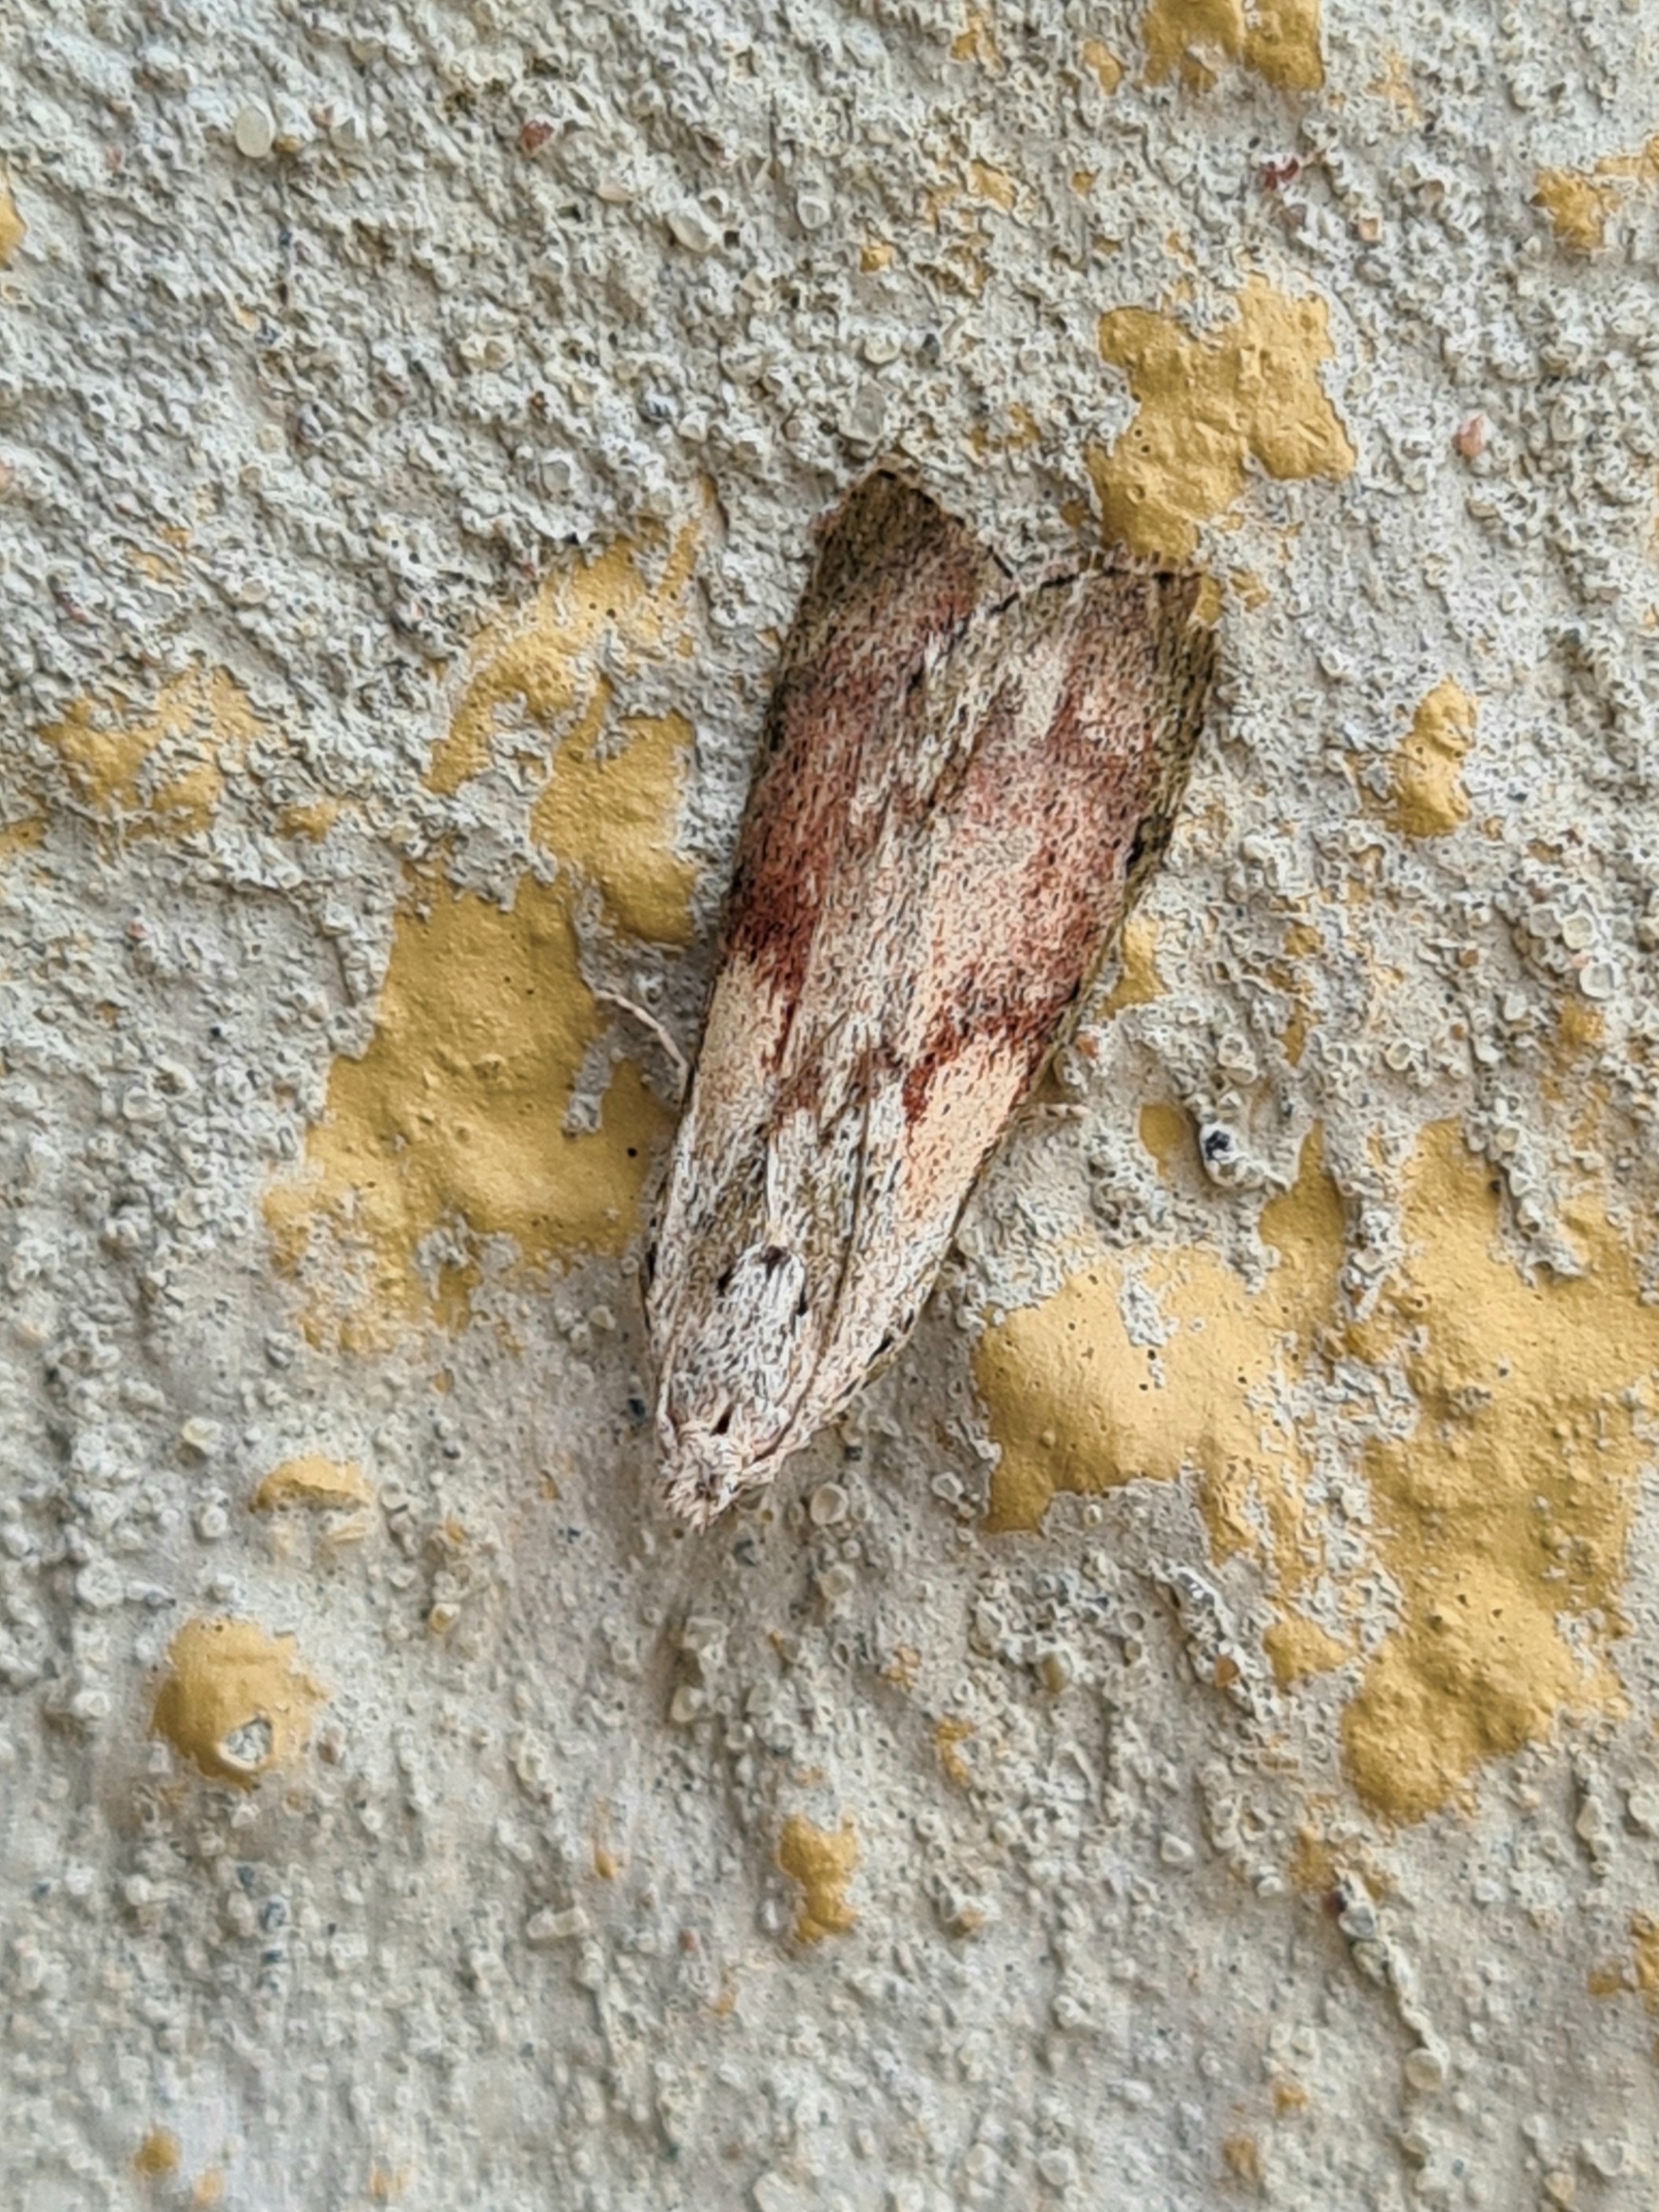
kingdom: Animalia
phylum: Arthropoda
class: Insecta
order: Lepidoptera
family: Pyralidae
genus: Aphomia
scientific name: Aphomia sociella
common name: Humlevoksmøl
